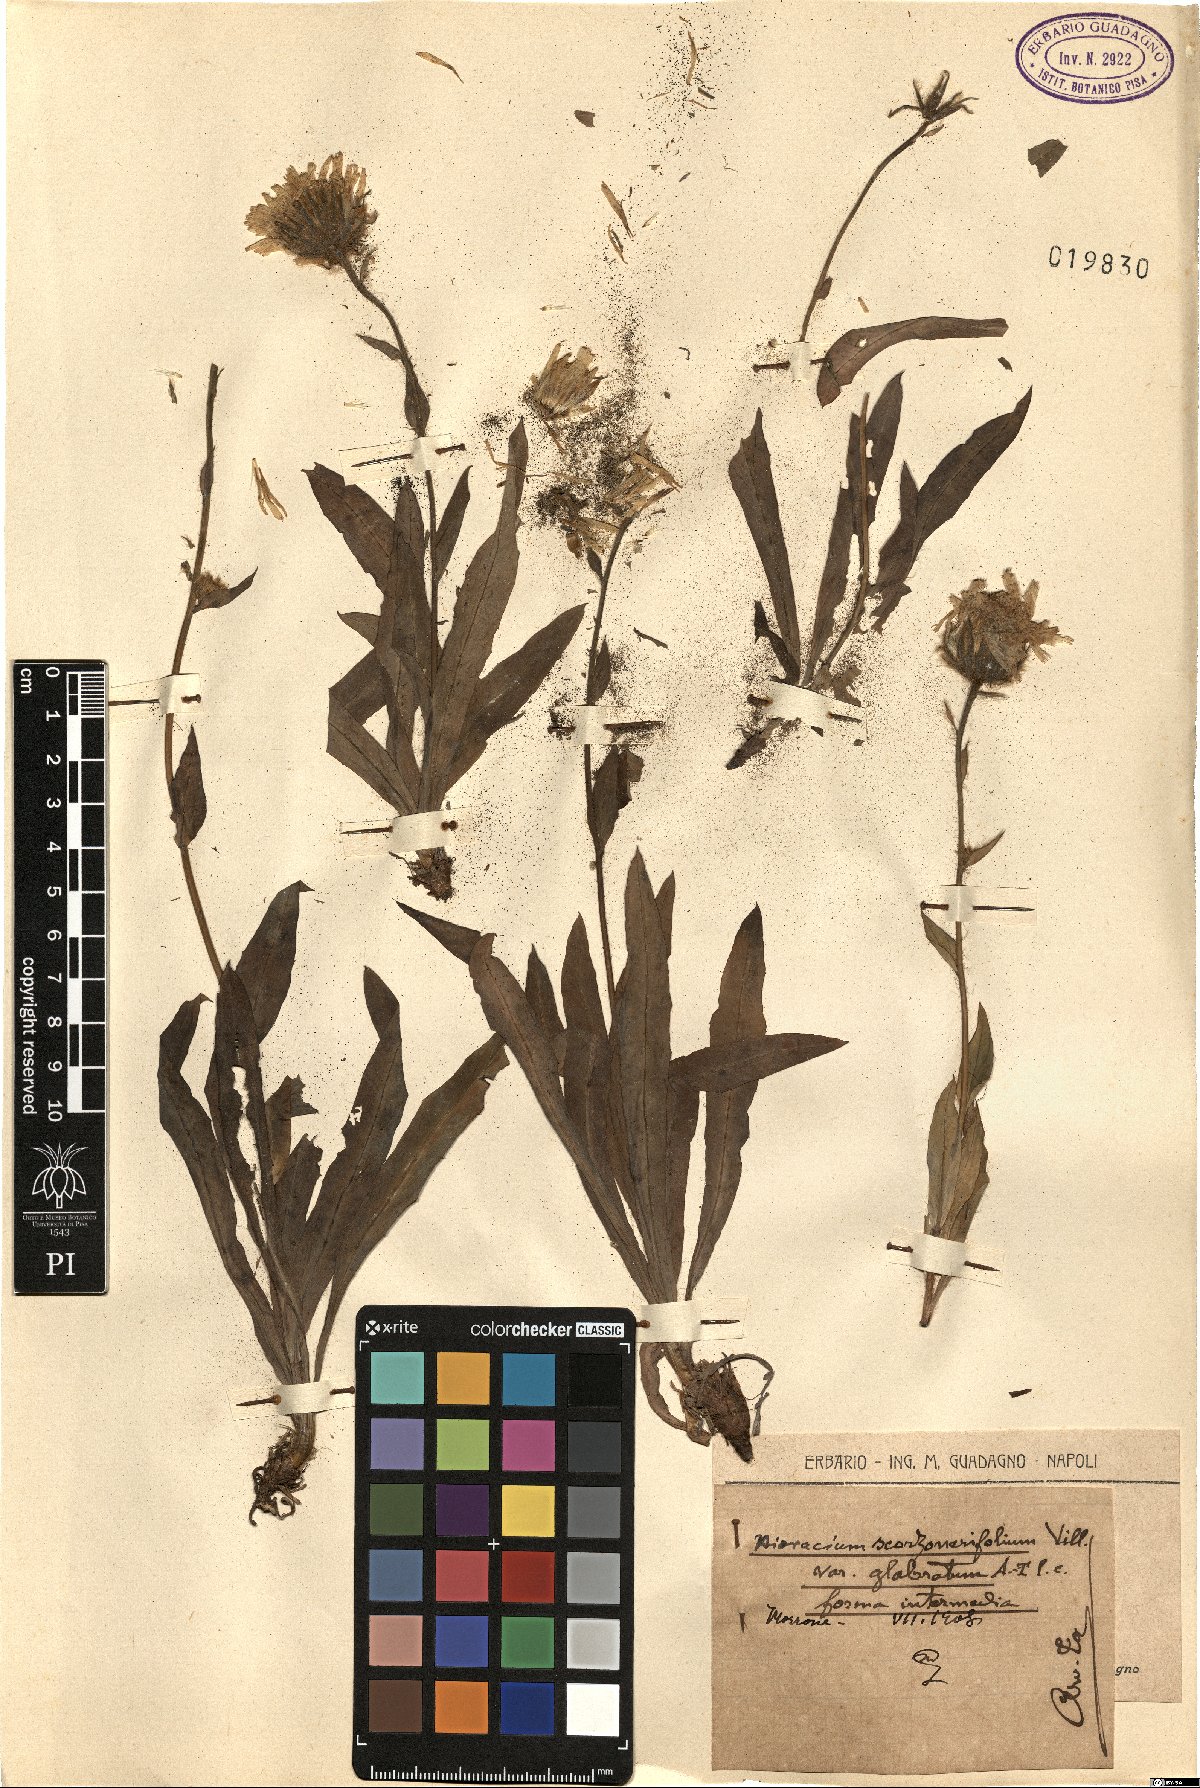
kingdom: Plantae
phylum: Tracheophyta
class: Magnoliopsida
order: Asterales
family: Asteraceae
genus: Hieracium
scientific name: Hieracium scorzonerifolium
